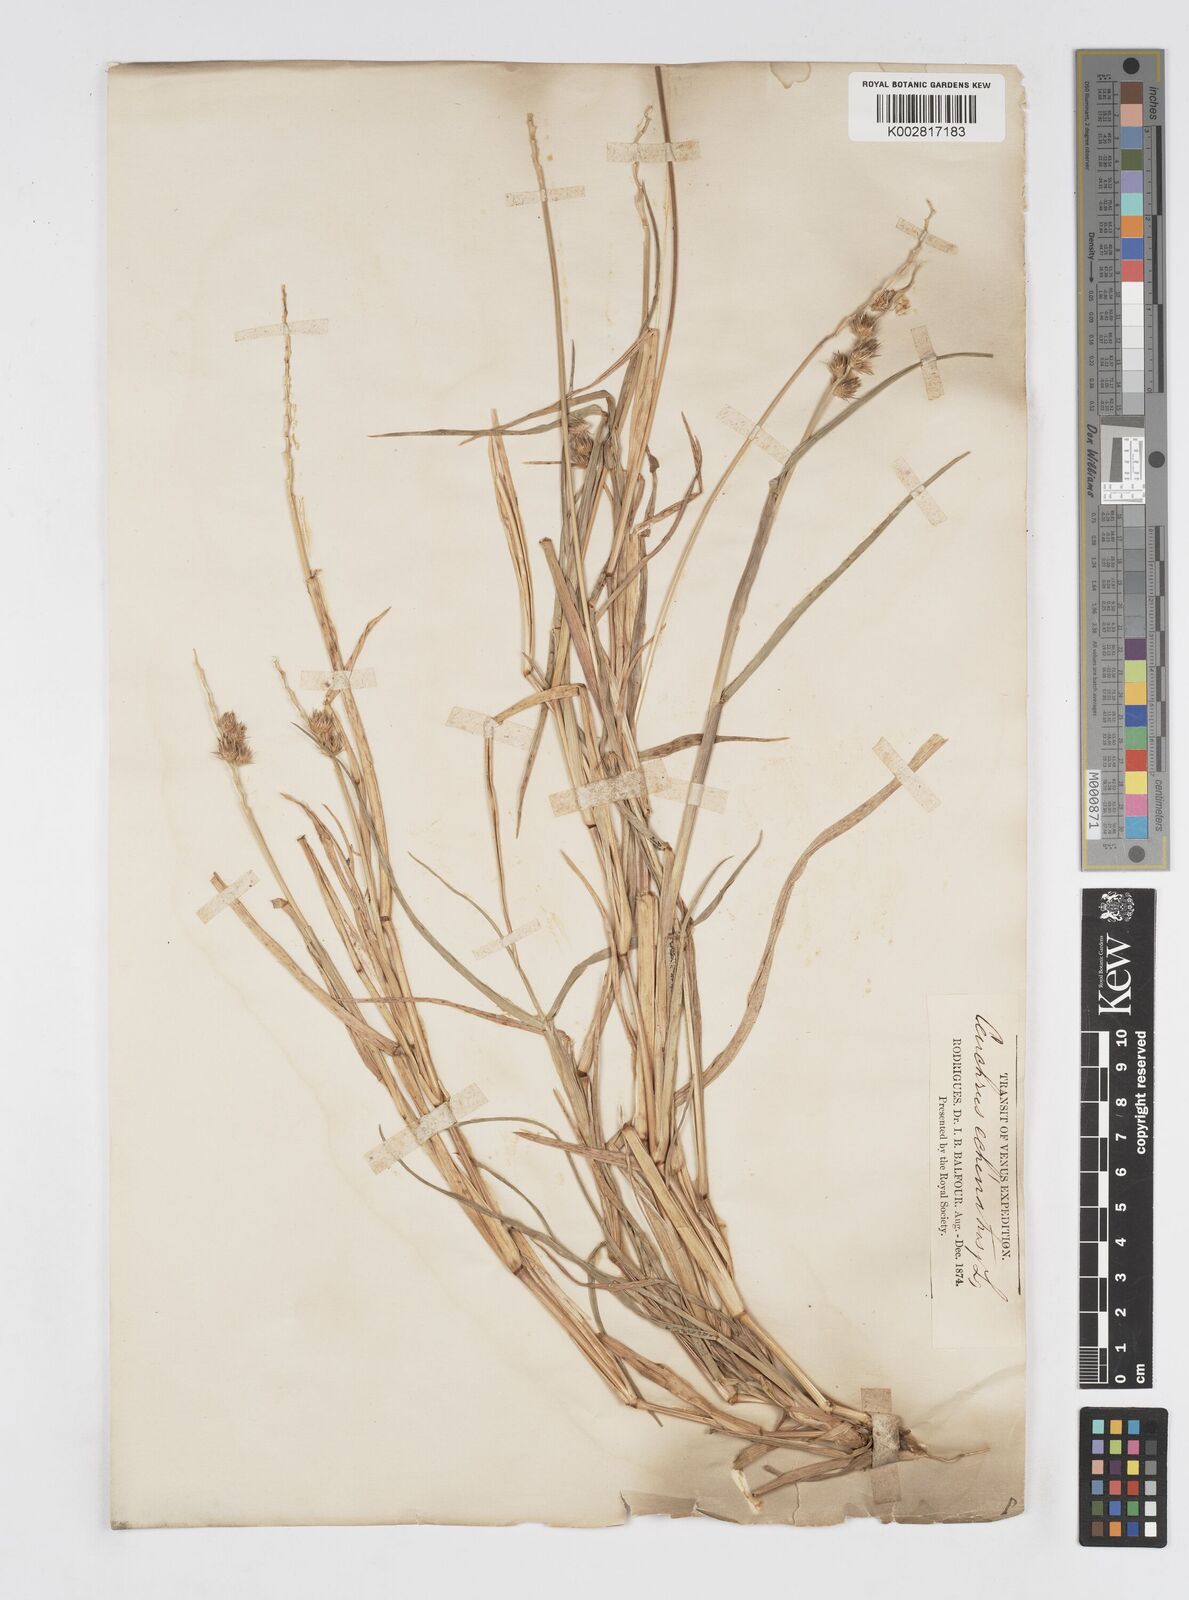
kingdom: Plantae
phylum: Tracheophyta
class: Liliopsida
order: Poales
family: Poaceae
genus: Cenchrus
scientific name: Cenchrus
